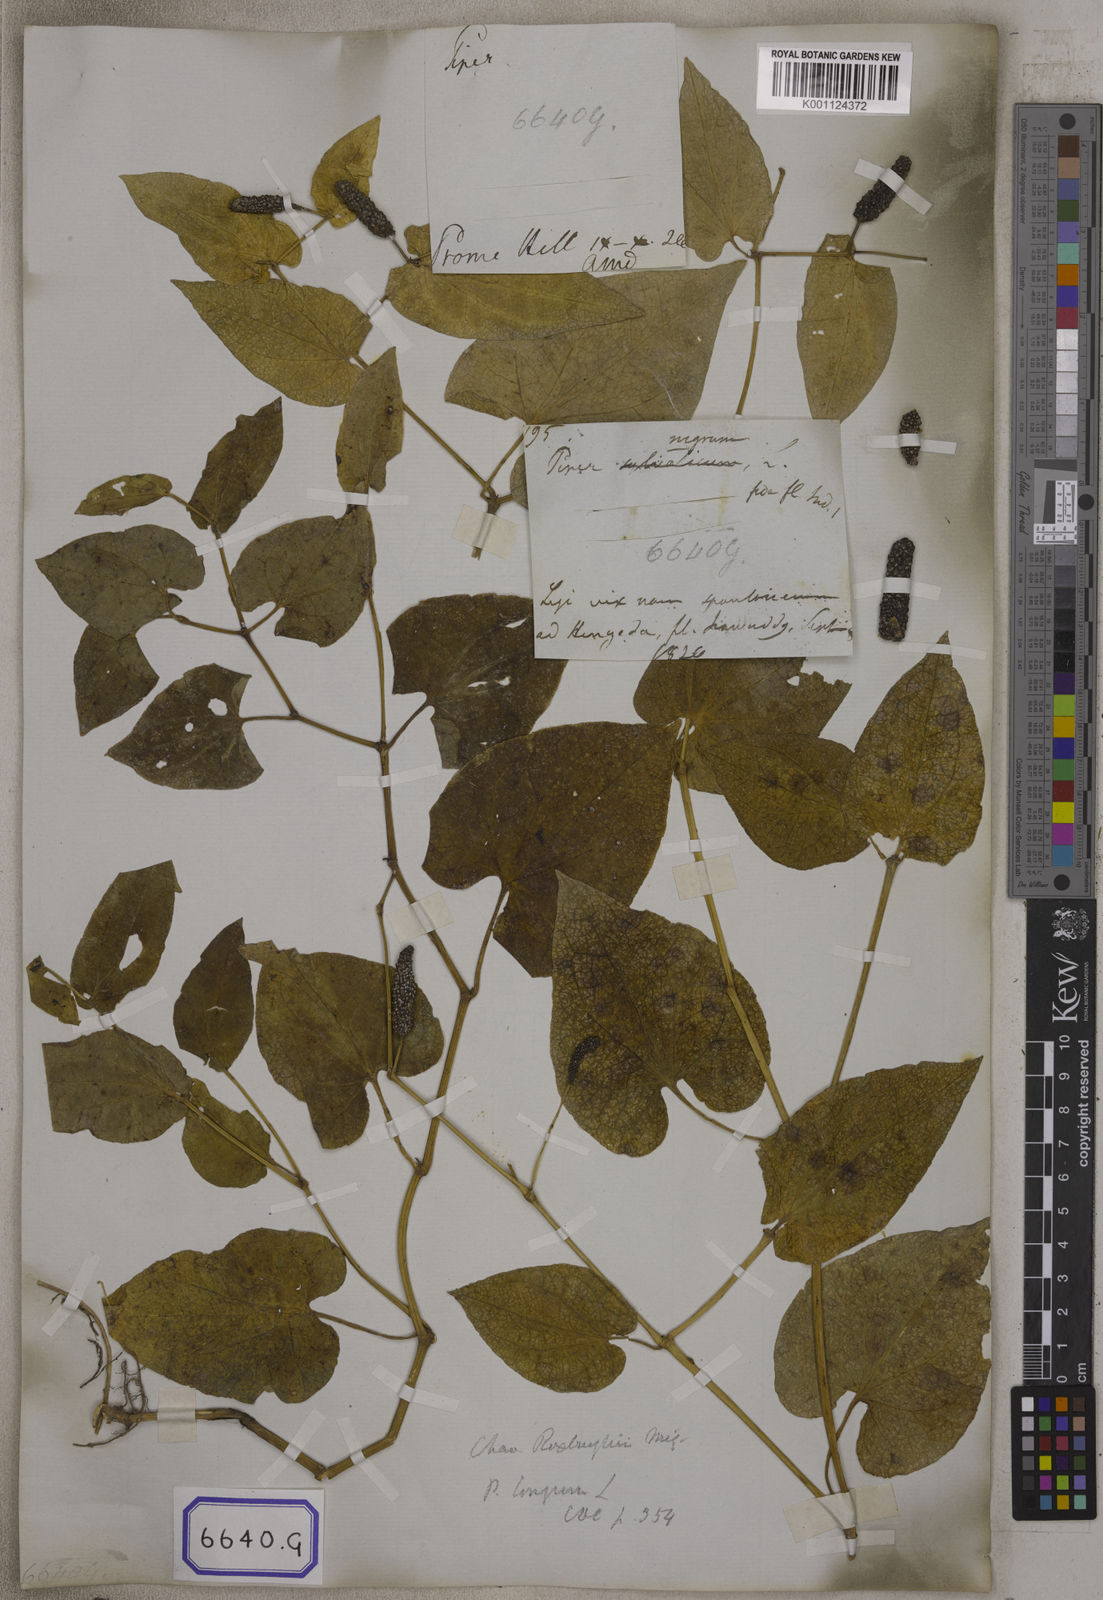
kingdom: Plantae
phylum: Tracheophyta
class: Magnoliopsida
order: Piperales
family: Piperaceae
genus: Piper
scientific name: Piper longum
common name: Long pepper
